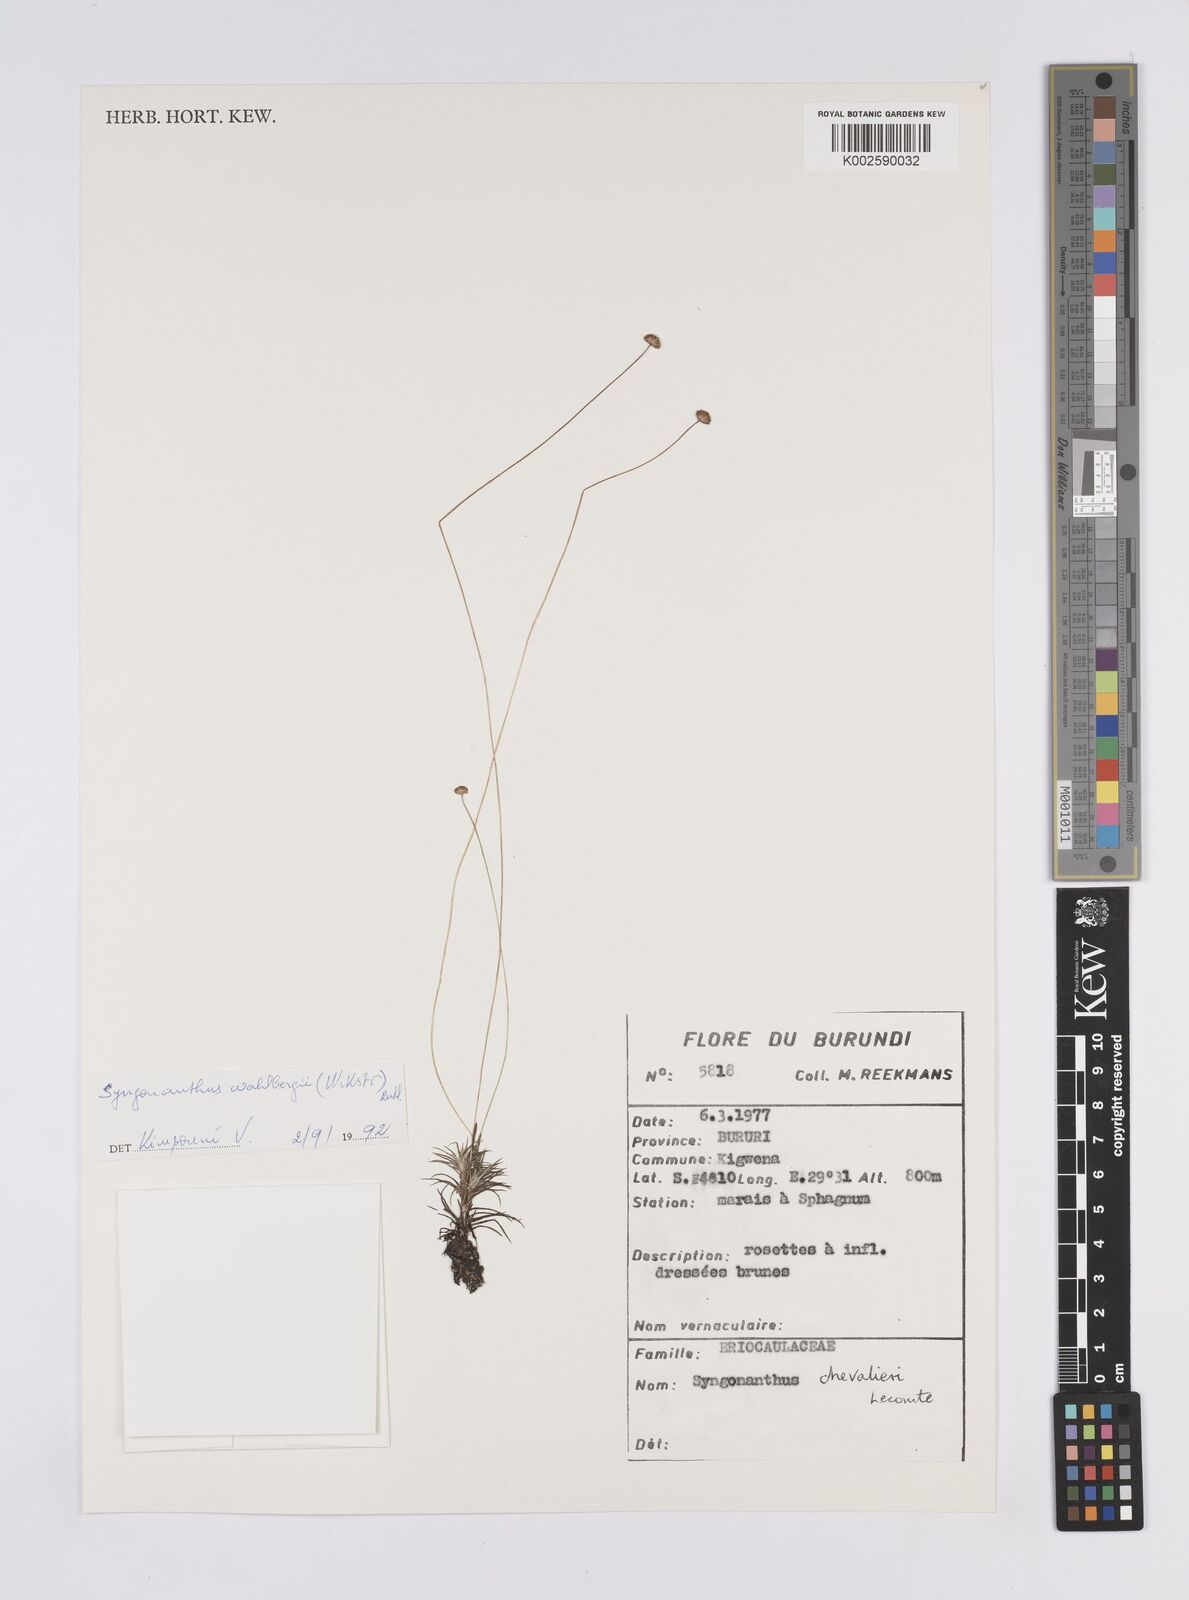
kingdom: Plantae
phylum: Tracheophyta
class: Liliopsida
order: Poales
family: Eriocaulaceae
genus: Syngonanthus
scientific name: Syngonanthus wahlbergii
